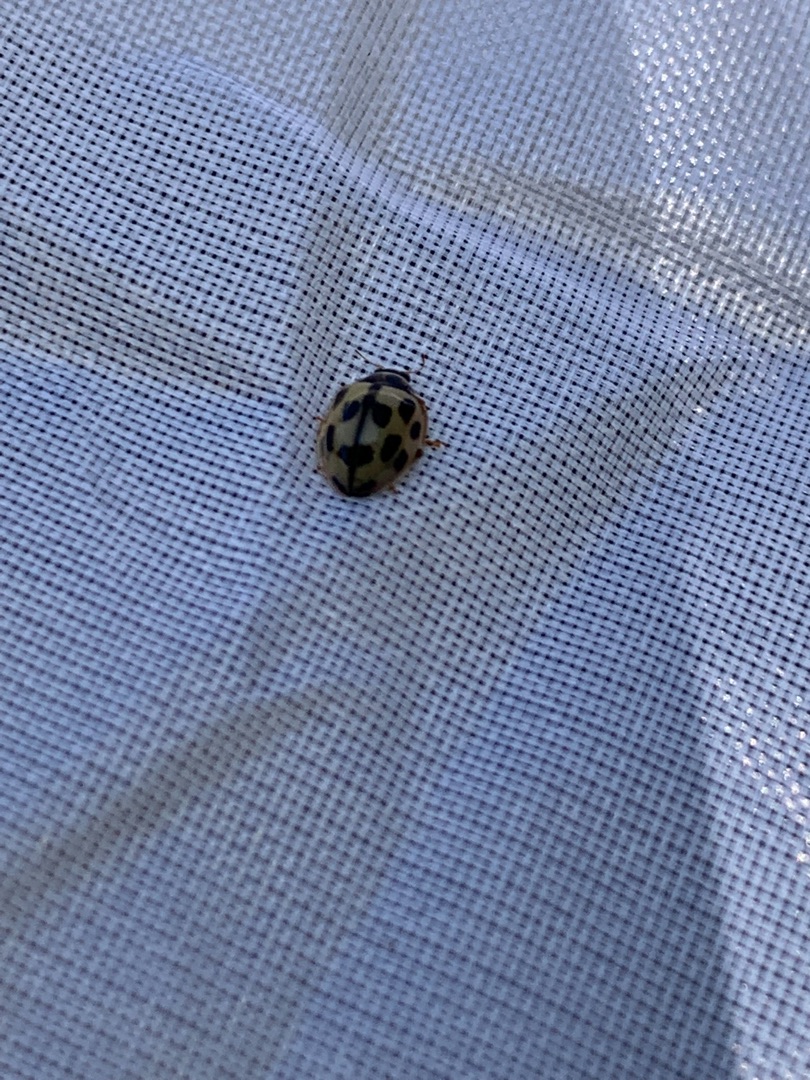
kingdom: Animalia
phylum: Arthropoda
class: Insecta
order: Coleoptera
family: Coccinellidae
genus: Propylaea
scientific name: Propylaea quatuordecimpunctata
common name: Skakbræt
